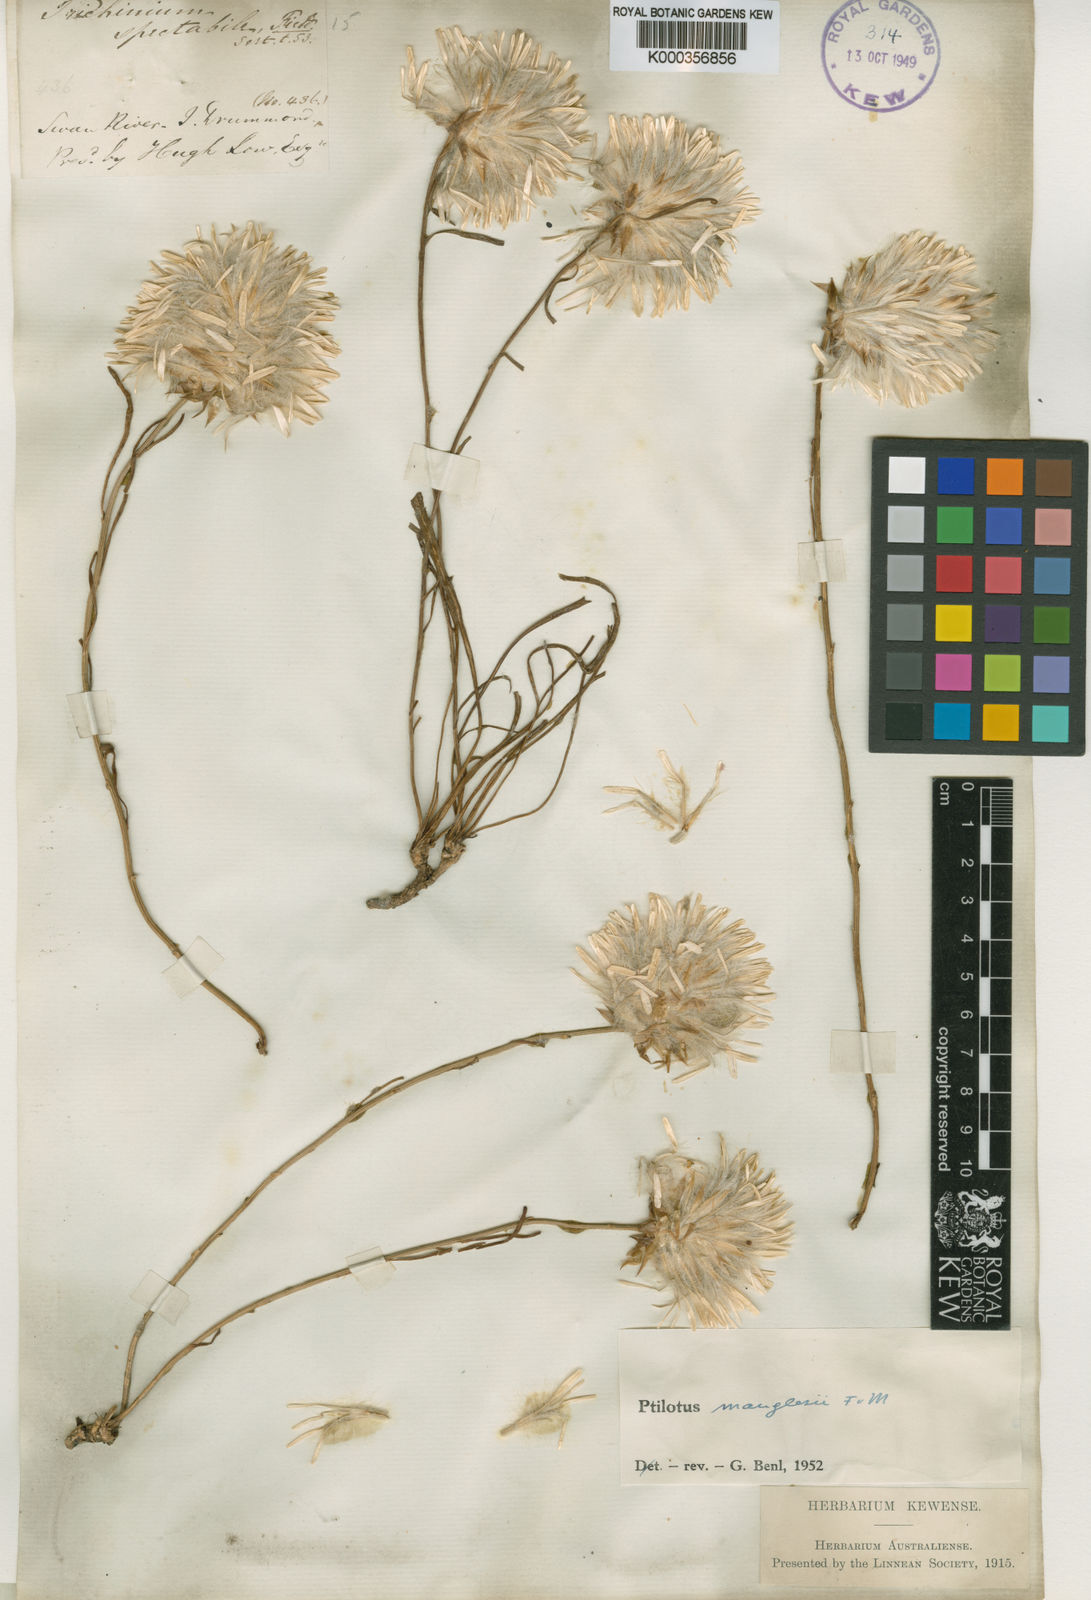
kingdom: Plantae
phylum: Tracheophyta
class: Magnoliopsida
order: Caryophyllales
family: Amaranthaceae
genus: Ptilotus
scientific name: Ptilotus manglesii
